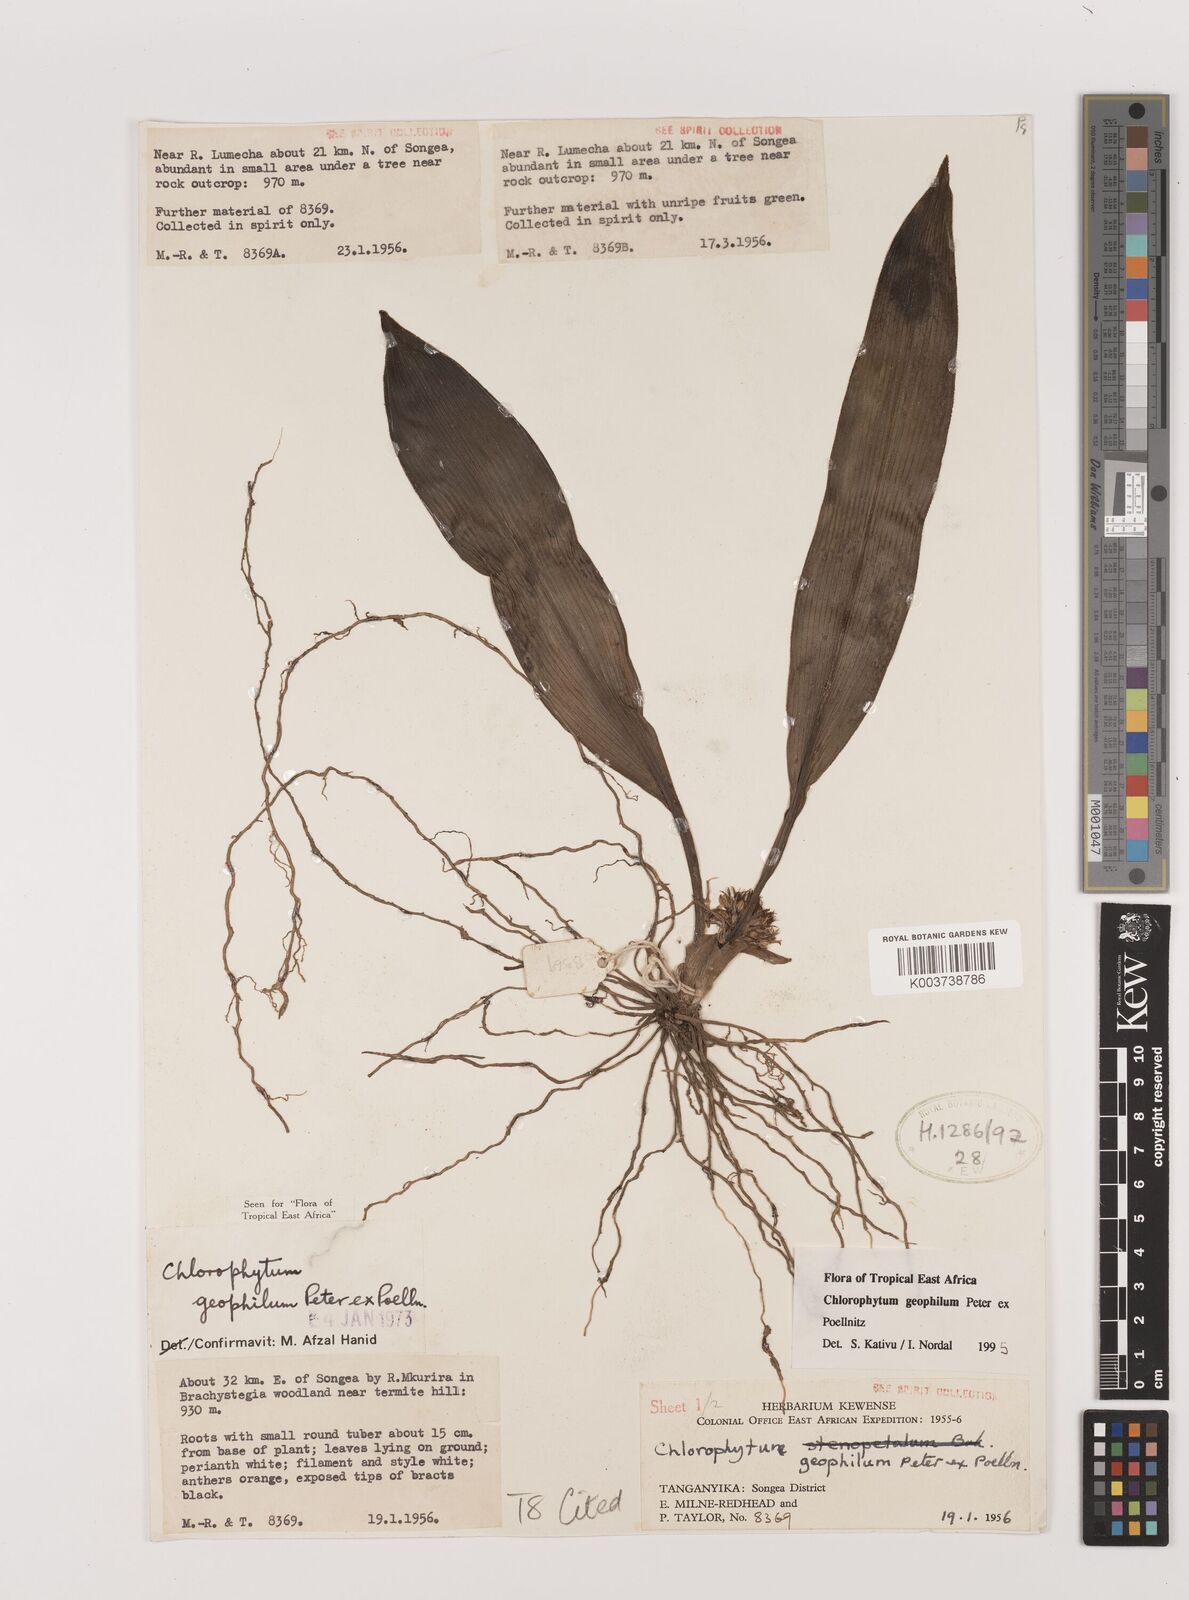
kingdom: Plantae
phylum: Tracheophyta
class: Liliopsida
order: Asparagales
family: Asparagaceae
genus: Chlorophytum
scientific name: Chlorophytum geophilum
